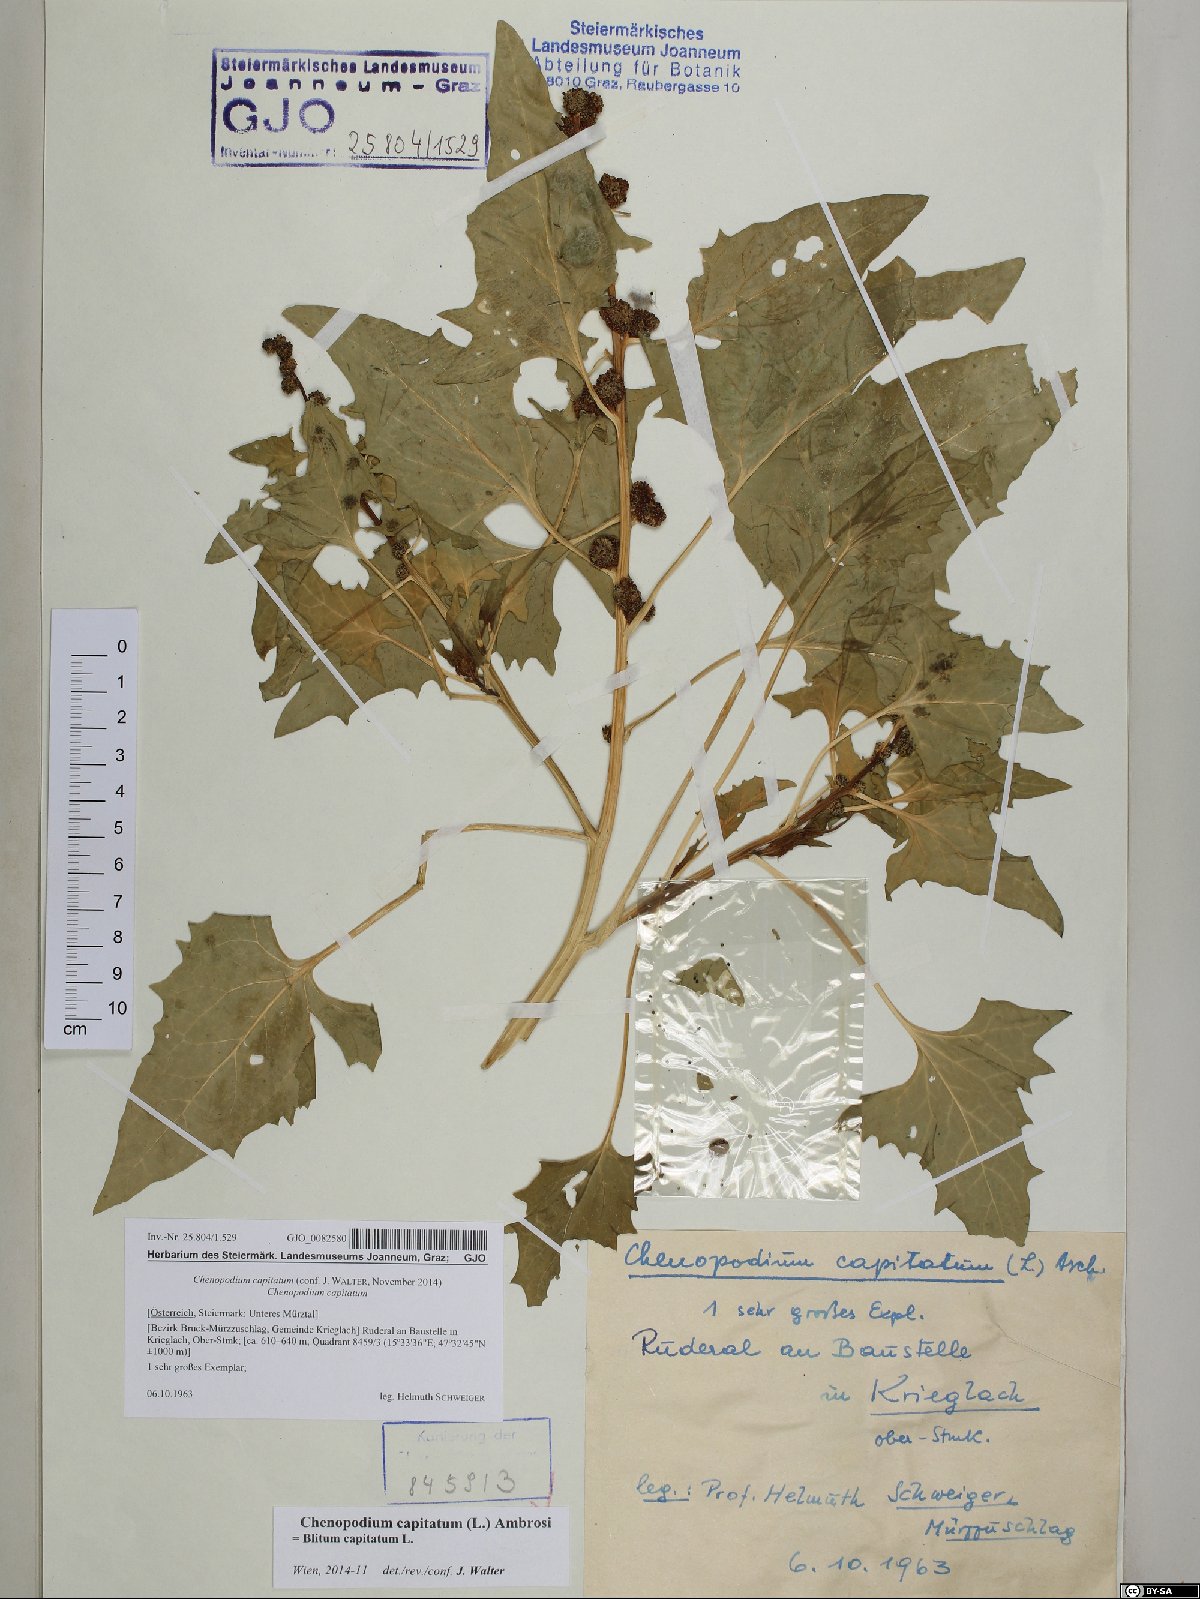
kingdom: Plantae
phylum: Tracheophyta
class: Magnoliopsida
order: Caryophyllales
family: Amaranthaceae
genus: Blitum
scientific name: Blitum capitatum
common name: Strawberry-blight
